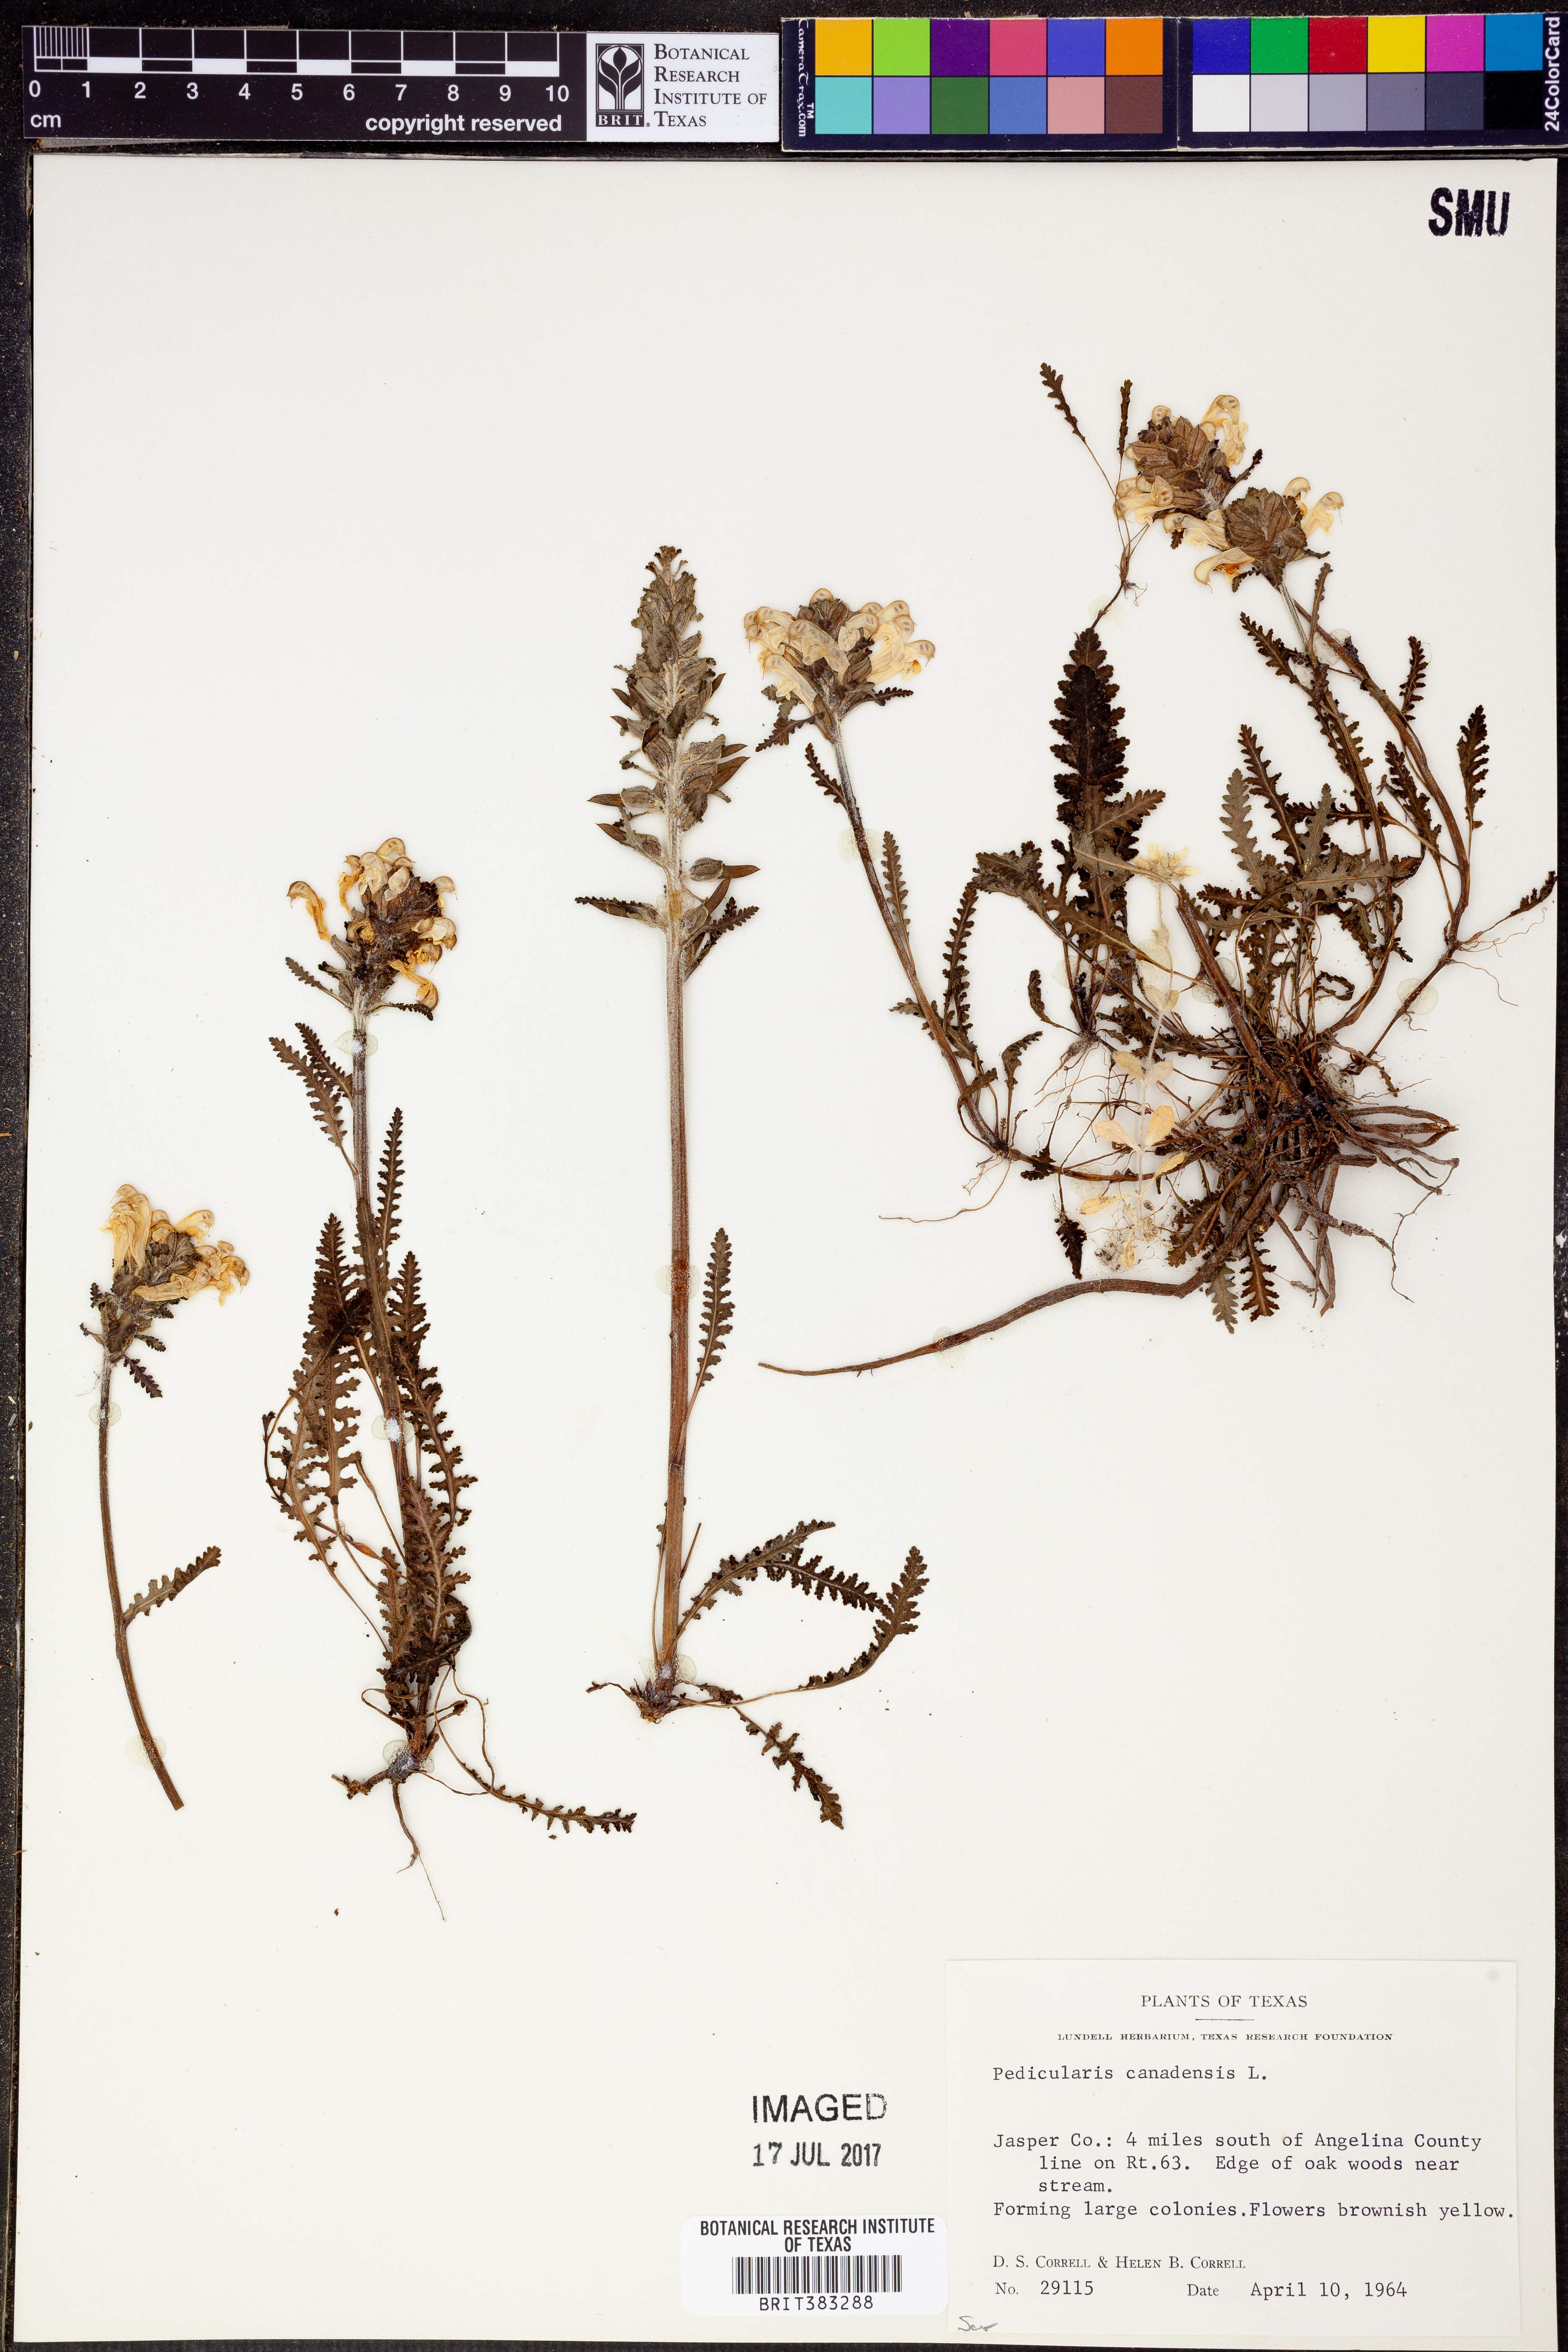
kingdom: Plantae
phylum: Tracheophyta
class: Magnoliopsida
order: Lamiales
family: Orobanchaceae
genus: Pedicularis
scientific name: Pedicularis canadensis
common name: Early lousewort
